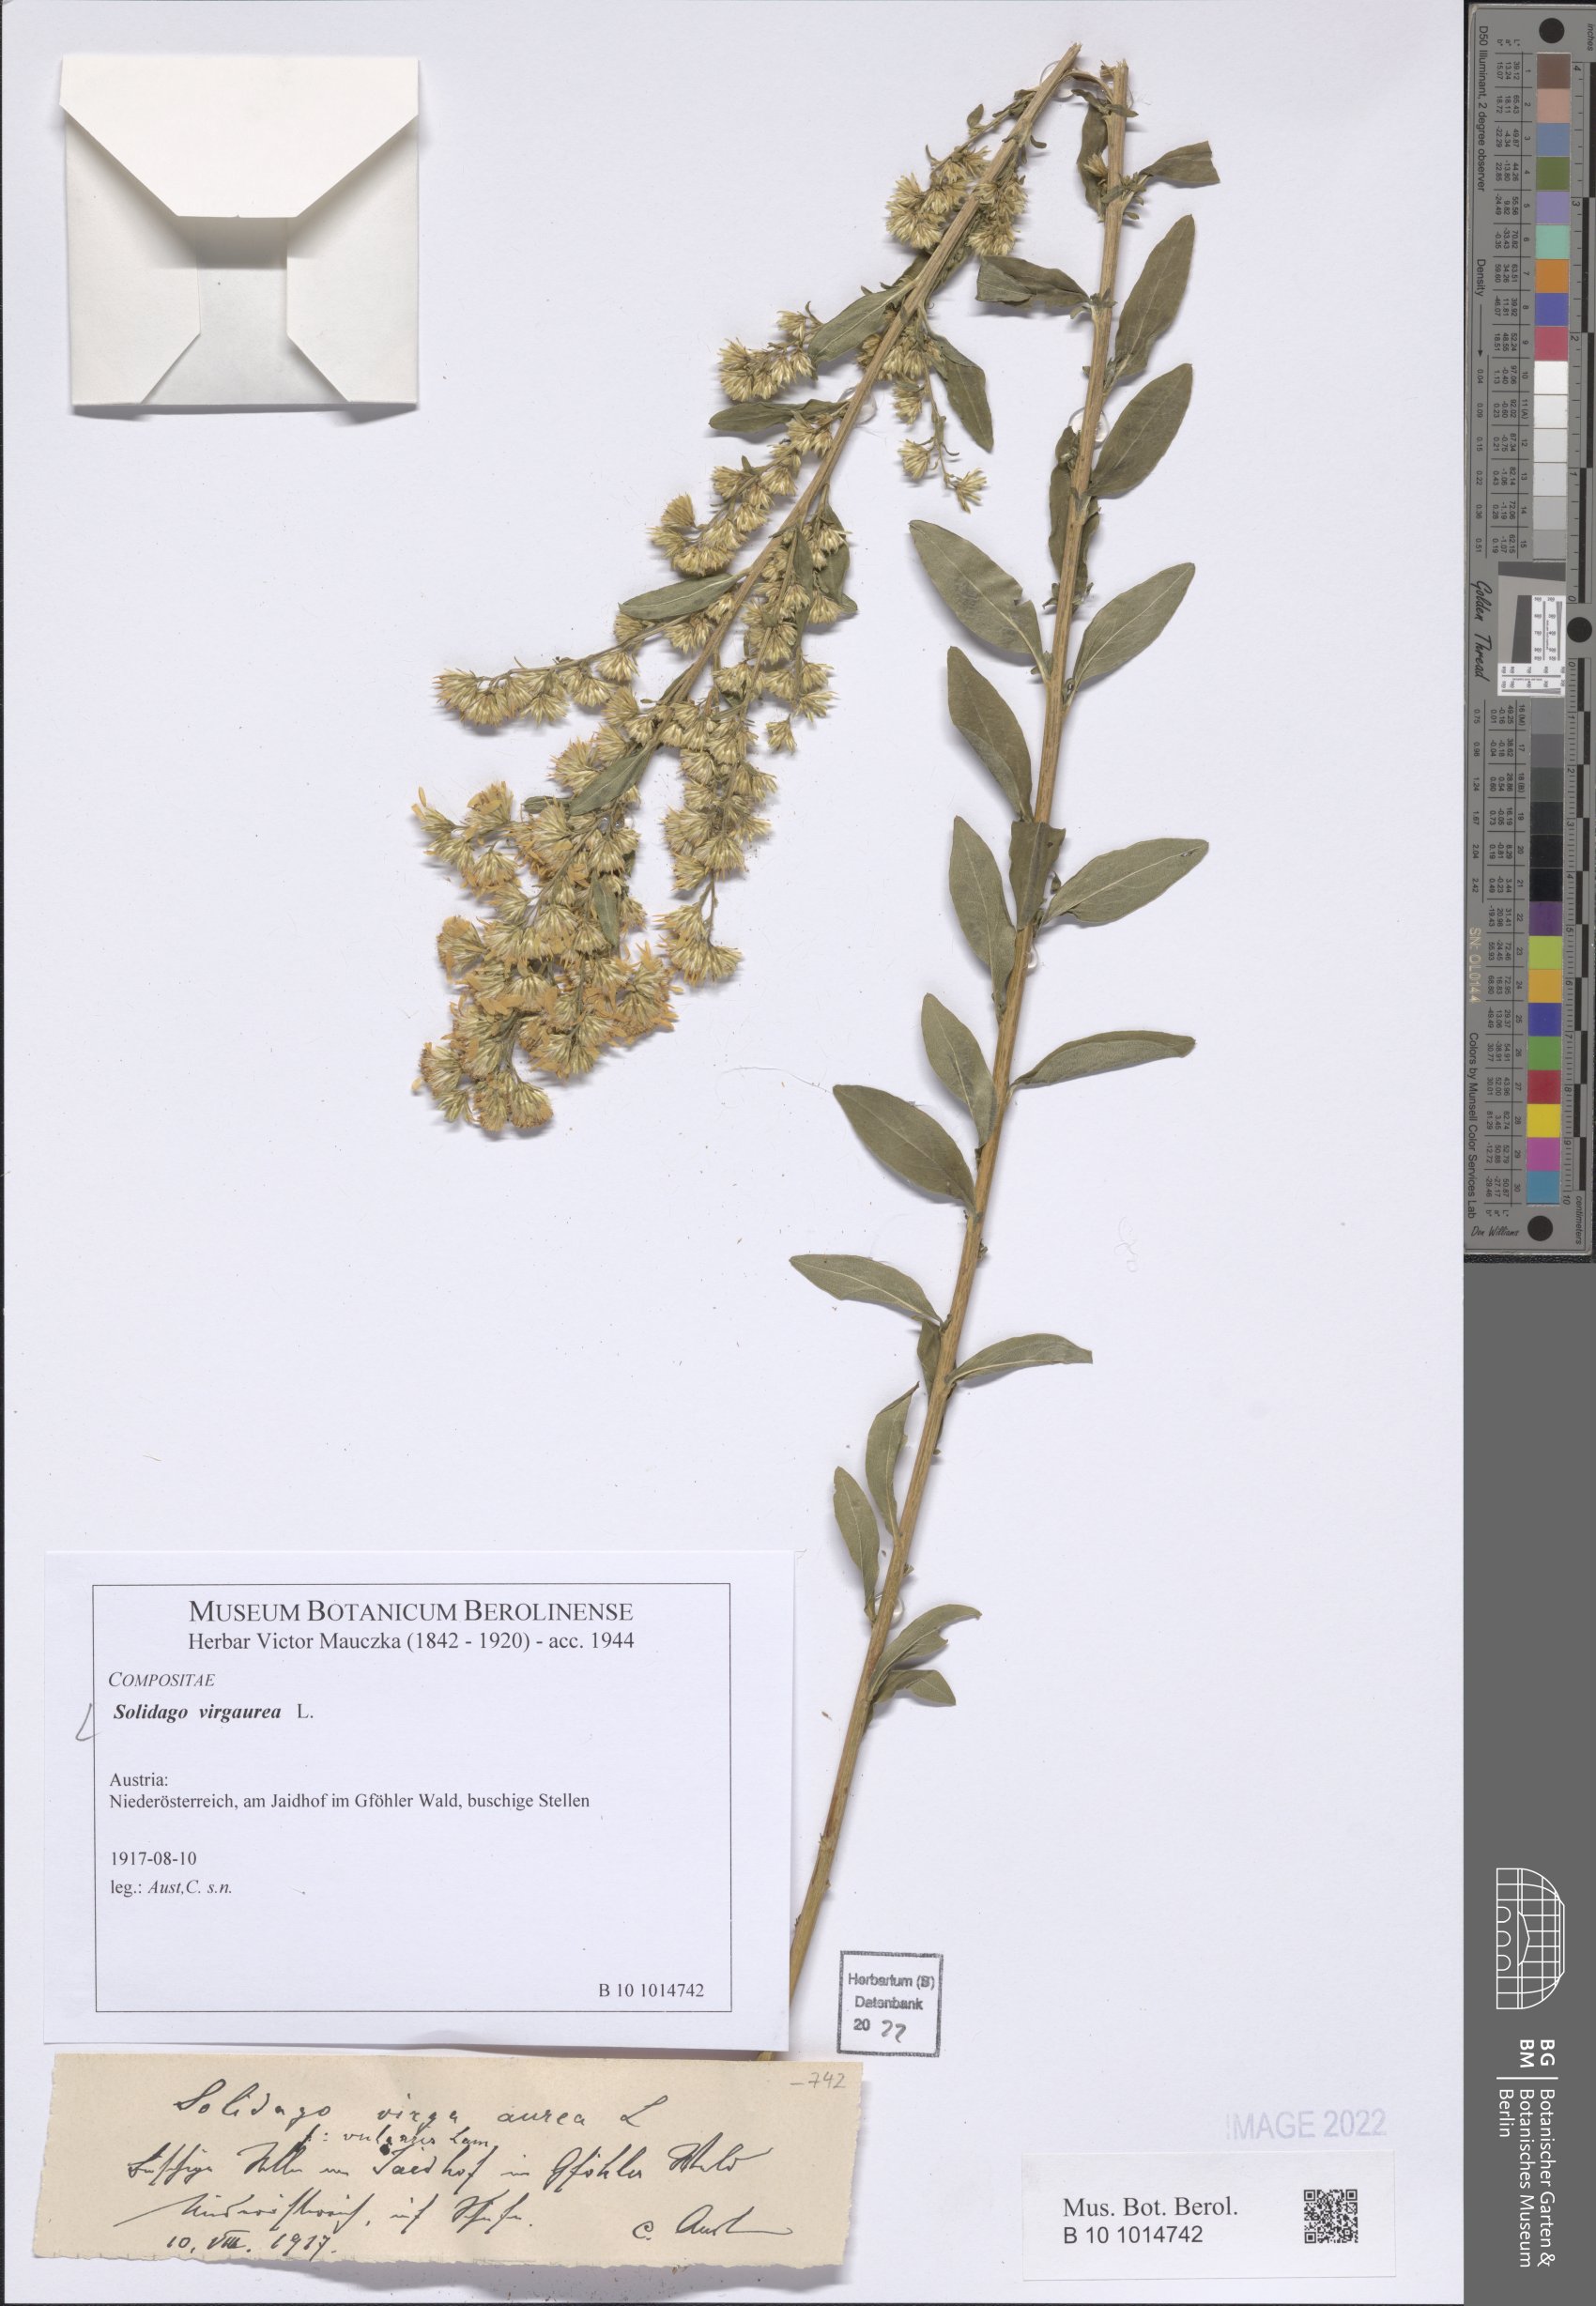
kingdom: Plantae
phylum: Tracheophyta
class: Magnoliopsida
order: Asterales
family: Asteraceae
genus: Solidago
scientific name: Solidago virgaurea
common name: Goldenrod
